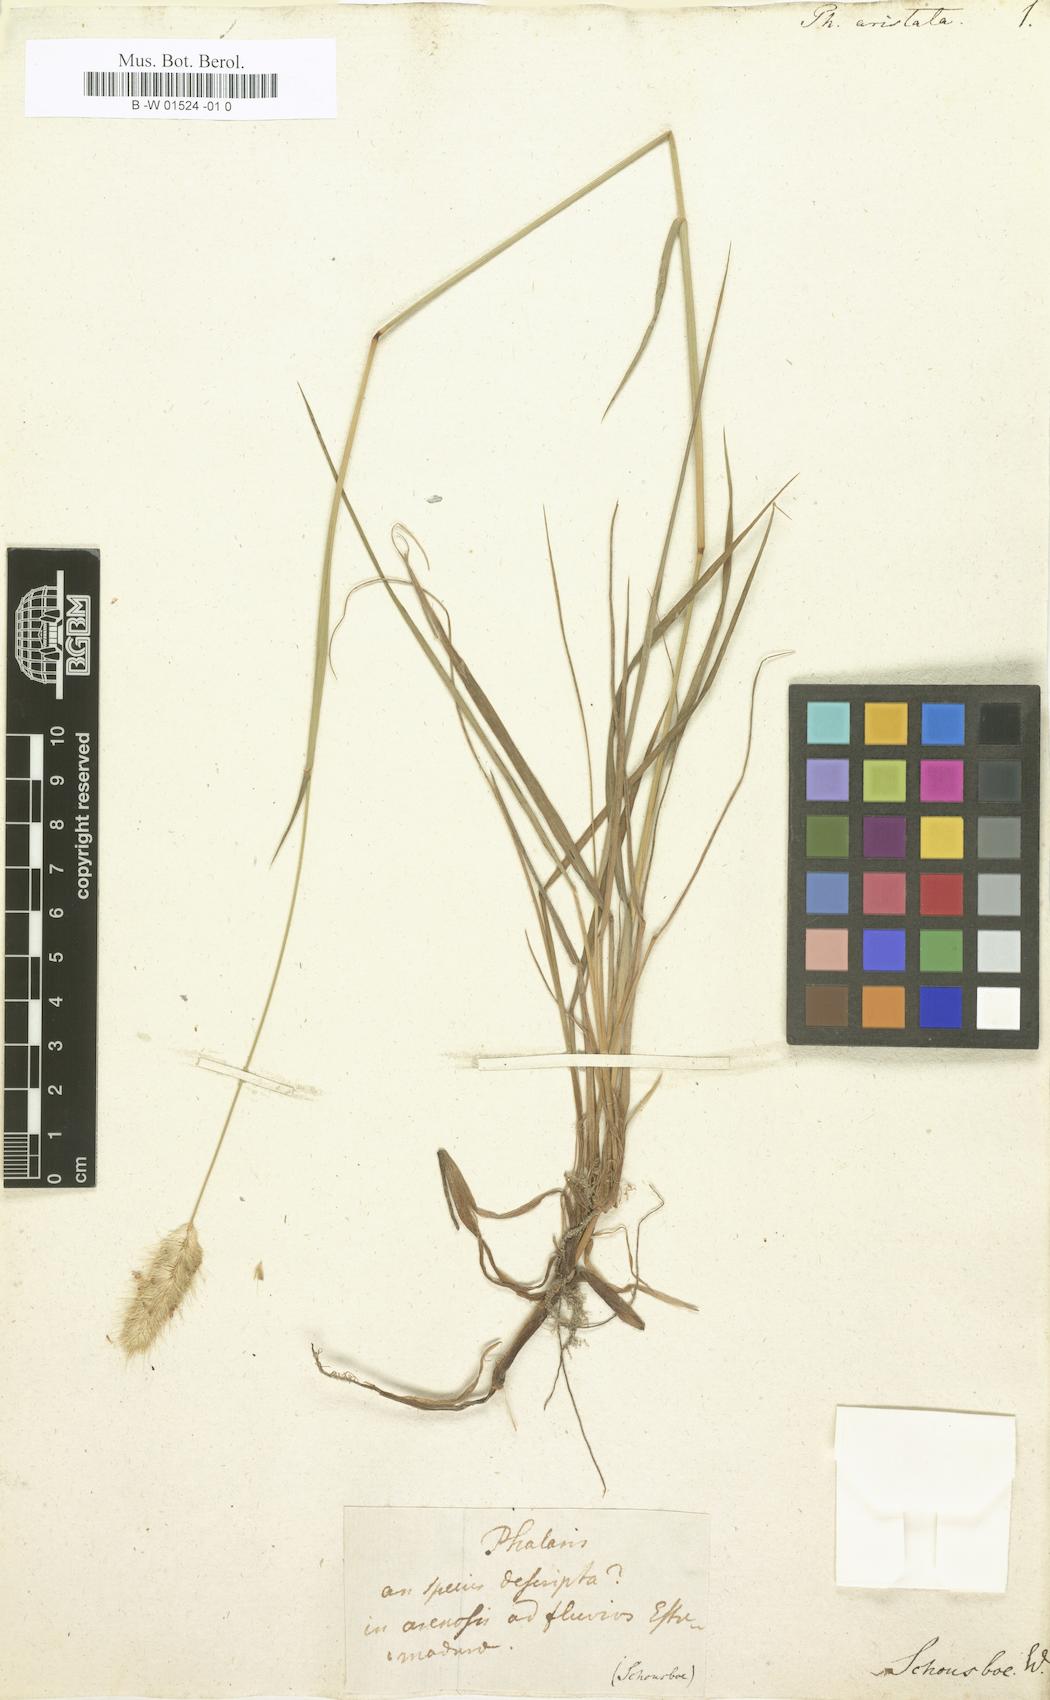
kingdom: Plantae
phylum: Tracheophyta
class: Liliopsida
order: Poales
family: Poaceae
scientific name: Poaceae
